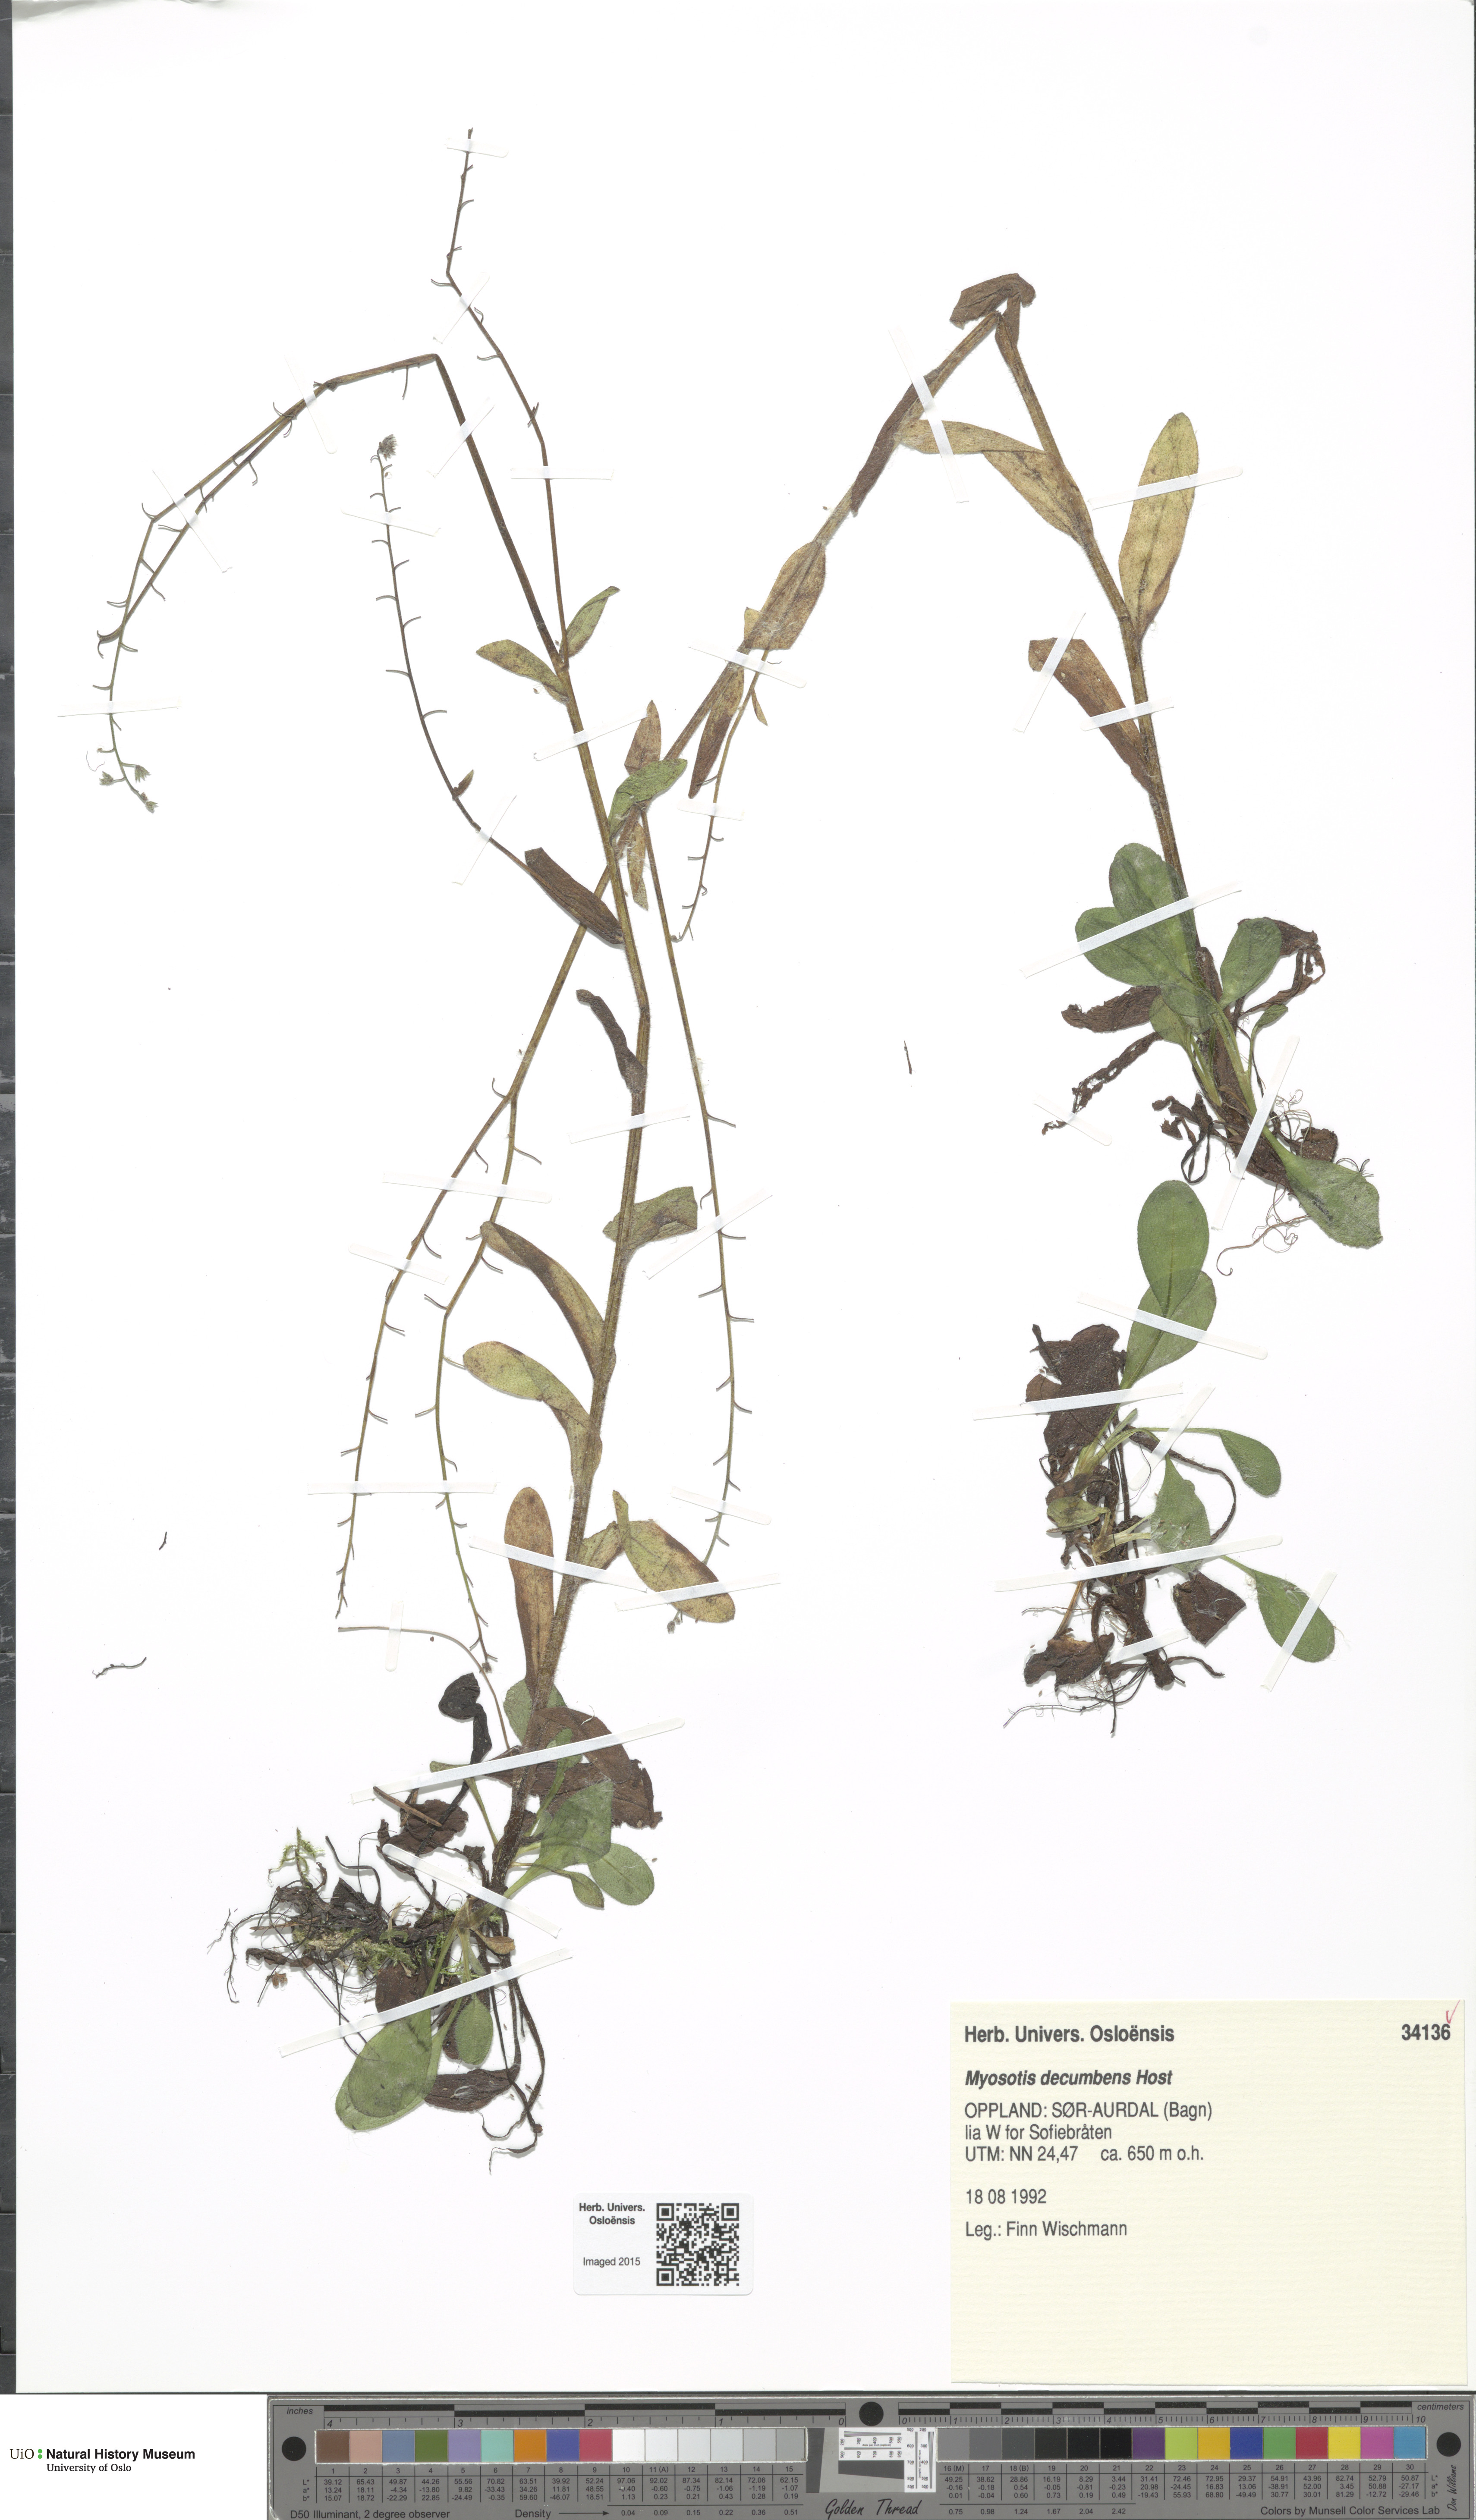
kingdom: Plantae
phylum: Tracheophyta
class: Magnoliopsida
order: Boraginales
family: Boraginaceae
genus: Myosotis
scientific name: Myosotis decumbens
